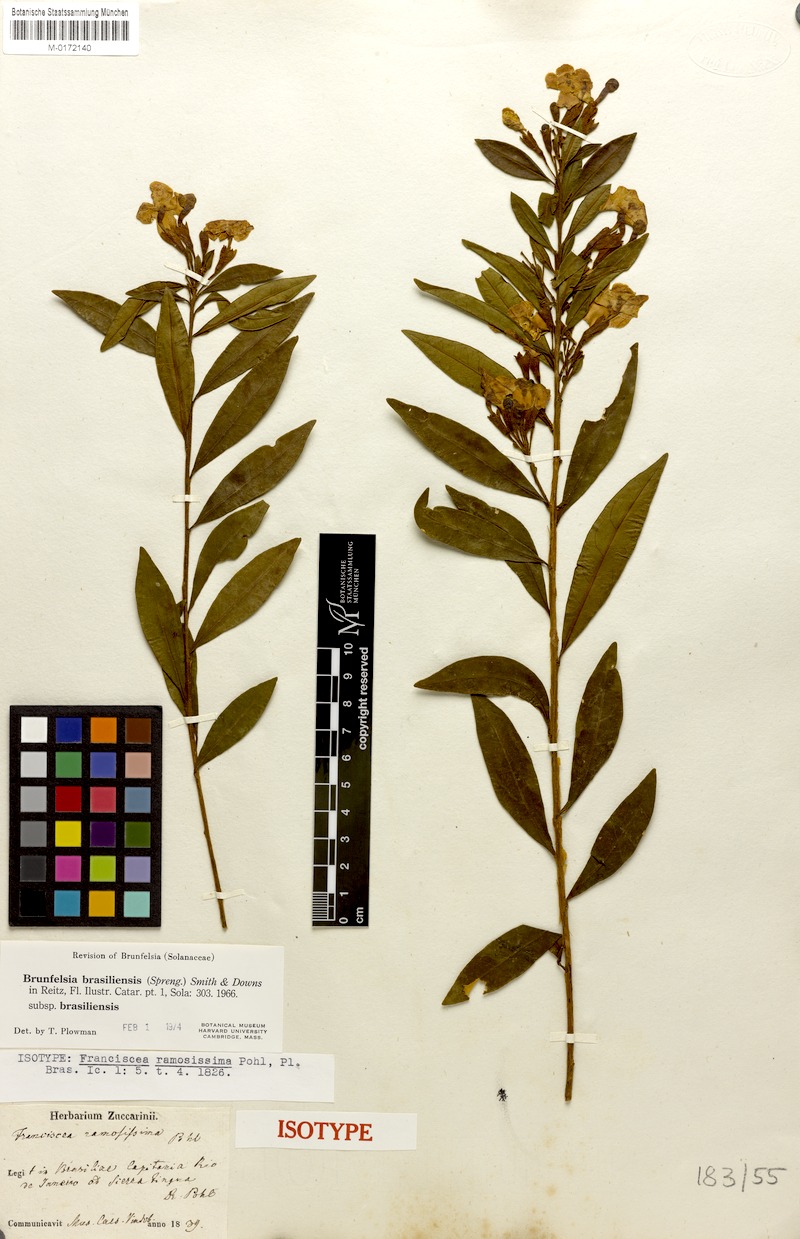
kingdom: Plantae
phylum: Tracheophyta
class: Magnoliopsida
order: Solanales
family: Solanaceae
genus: Brunfelsia
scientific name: Brunfelsia brasiliensis
